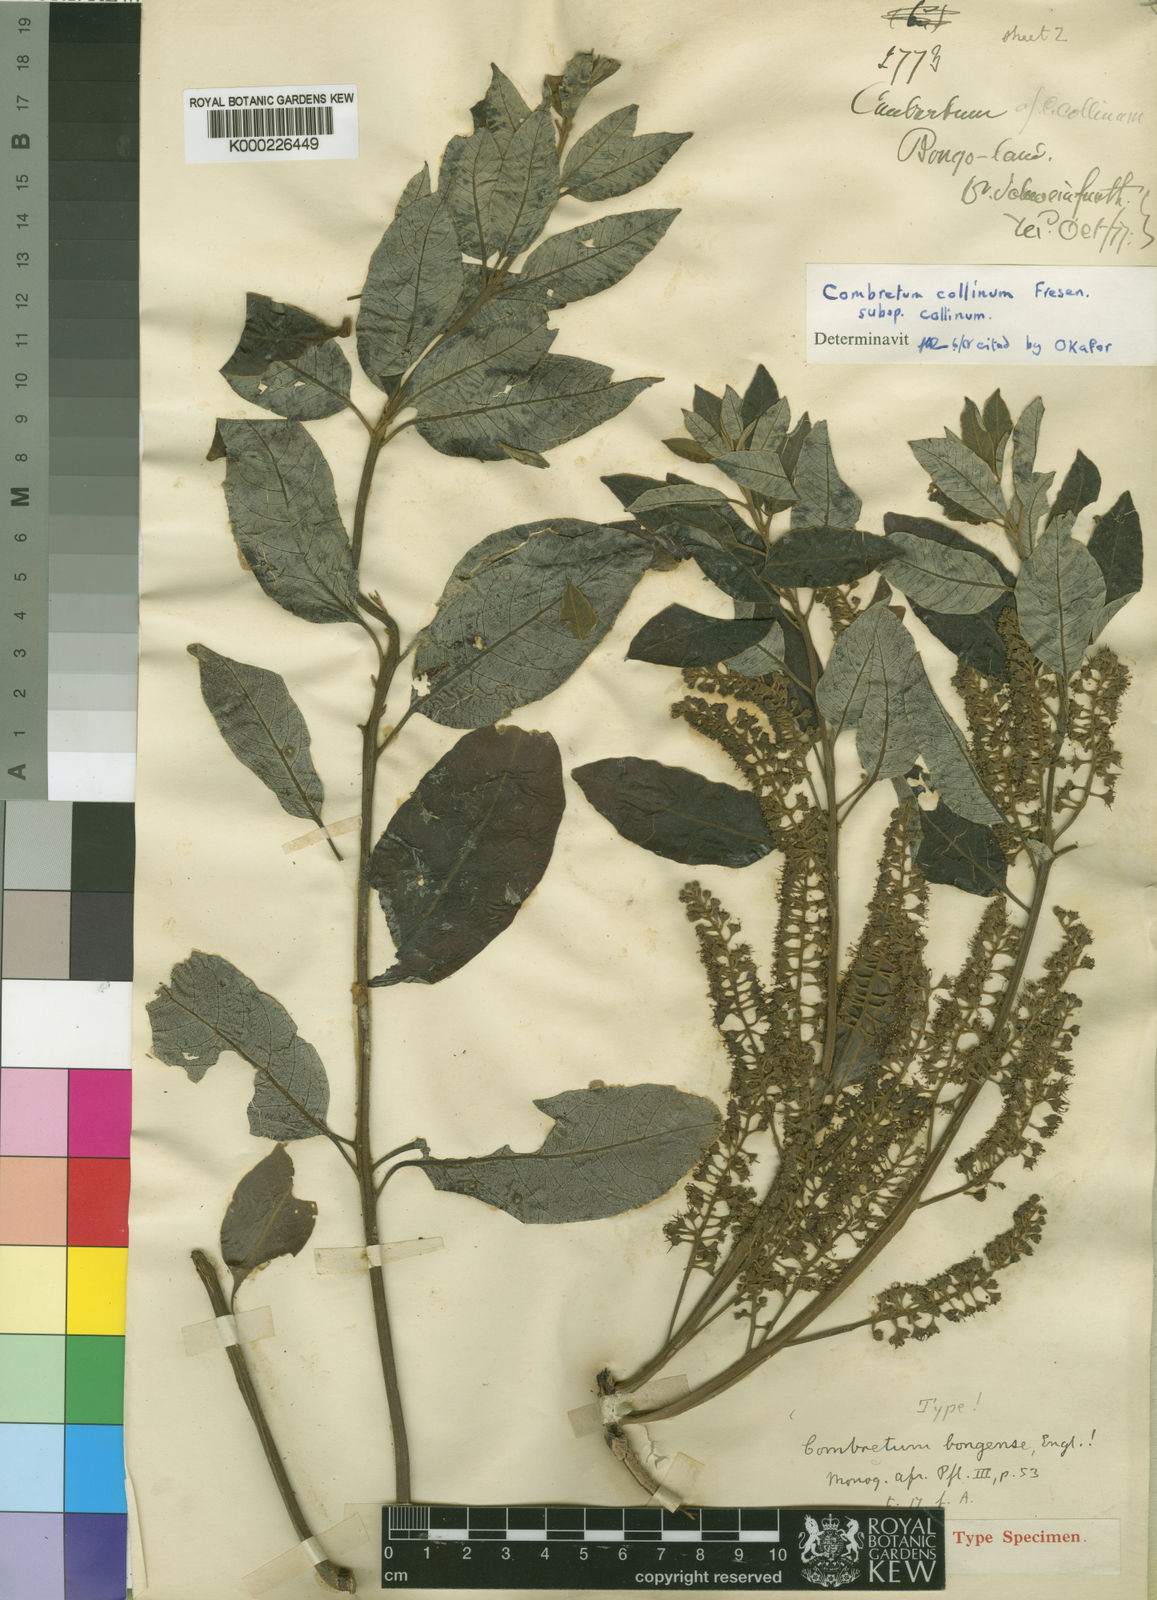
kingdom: Plantae
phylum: Tracheophyta
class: Magnoliopsida
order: Myrtales
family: Combretaceae
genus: Combretum
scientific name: Combretum collinum
